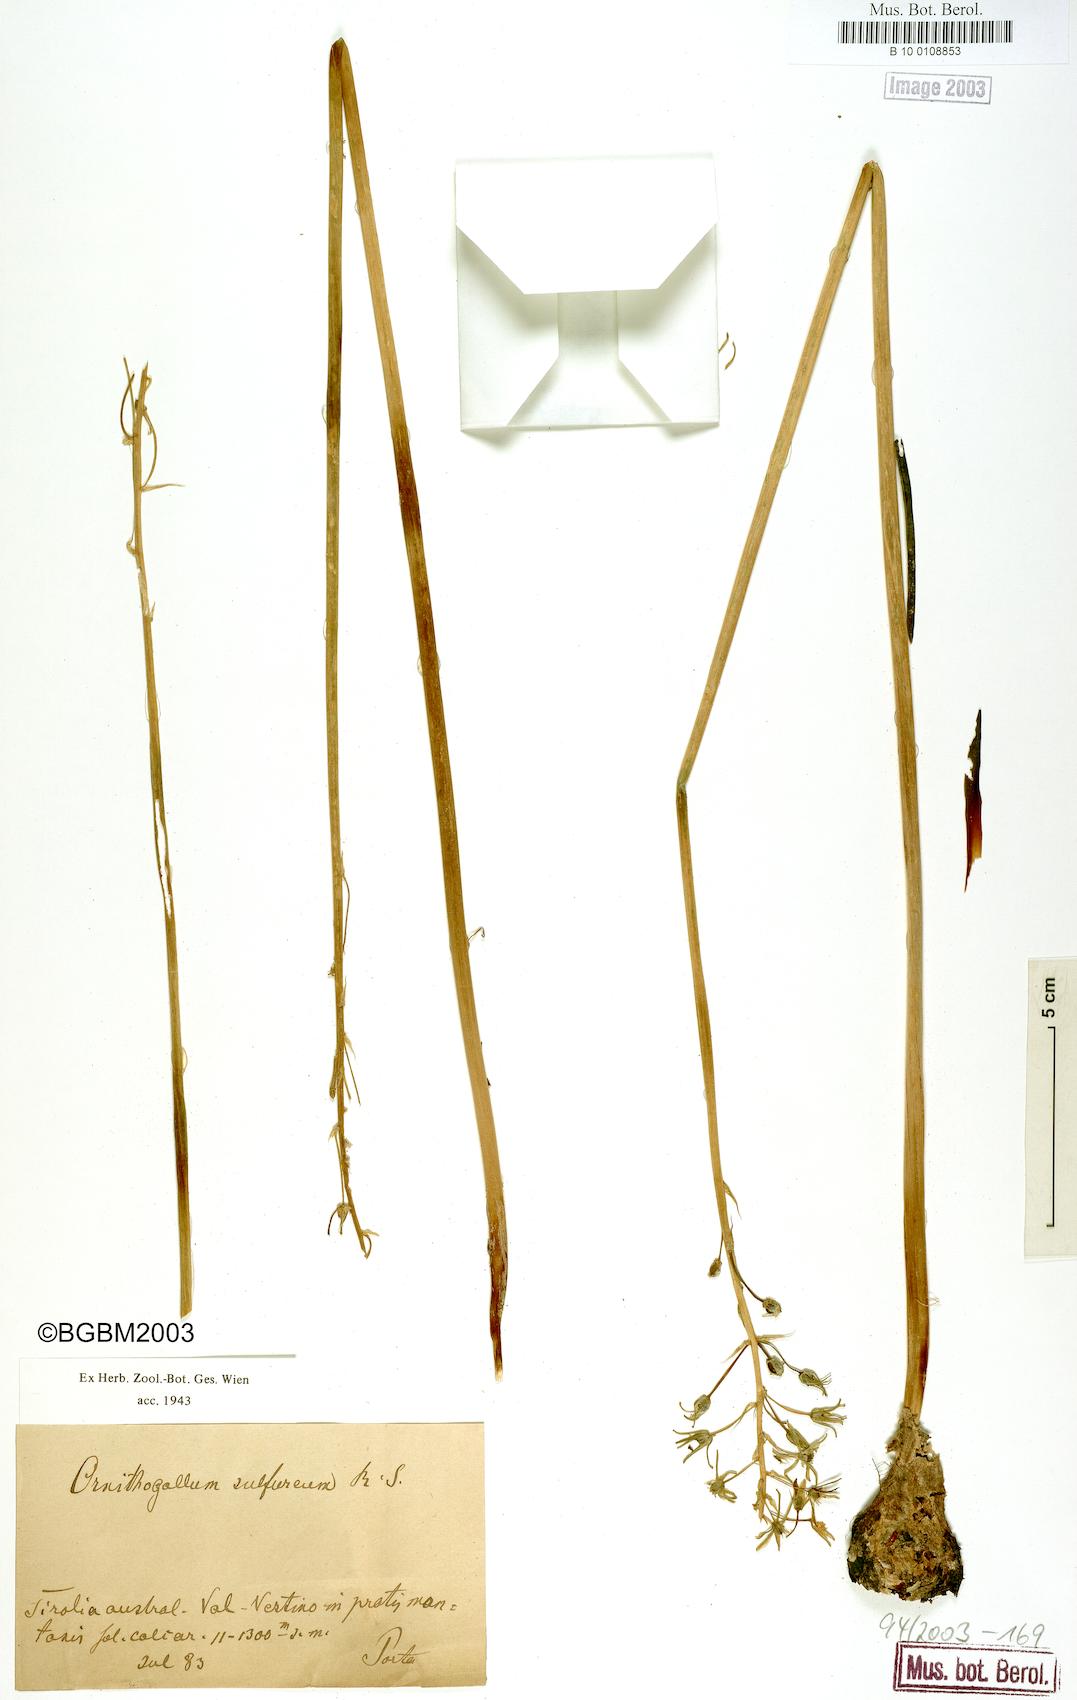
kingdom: Plantae
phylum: Tracheophyta
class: Liliopsida
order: Asparagales
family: Asparagaceae
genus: Ornithogalum
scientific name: Ornithogalum pyrenaicum
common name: Spiked star-of-bethlehem
